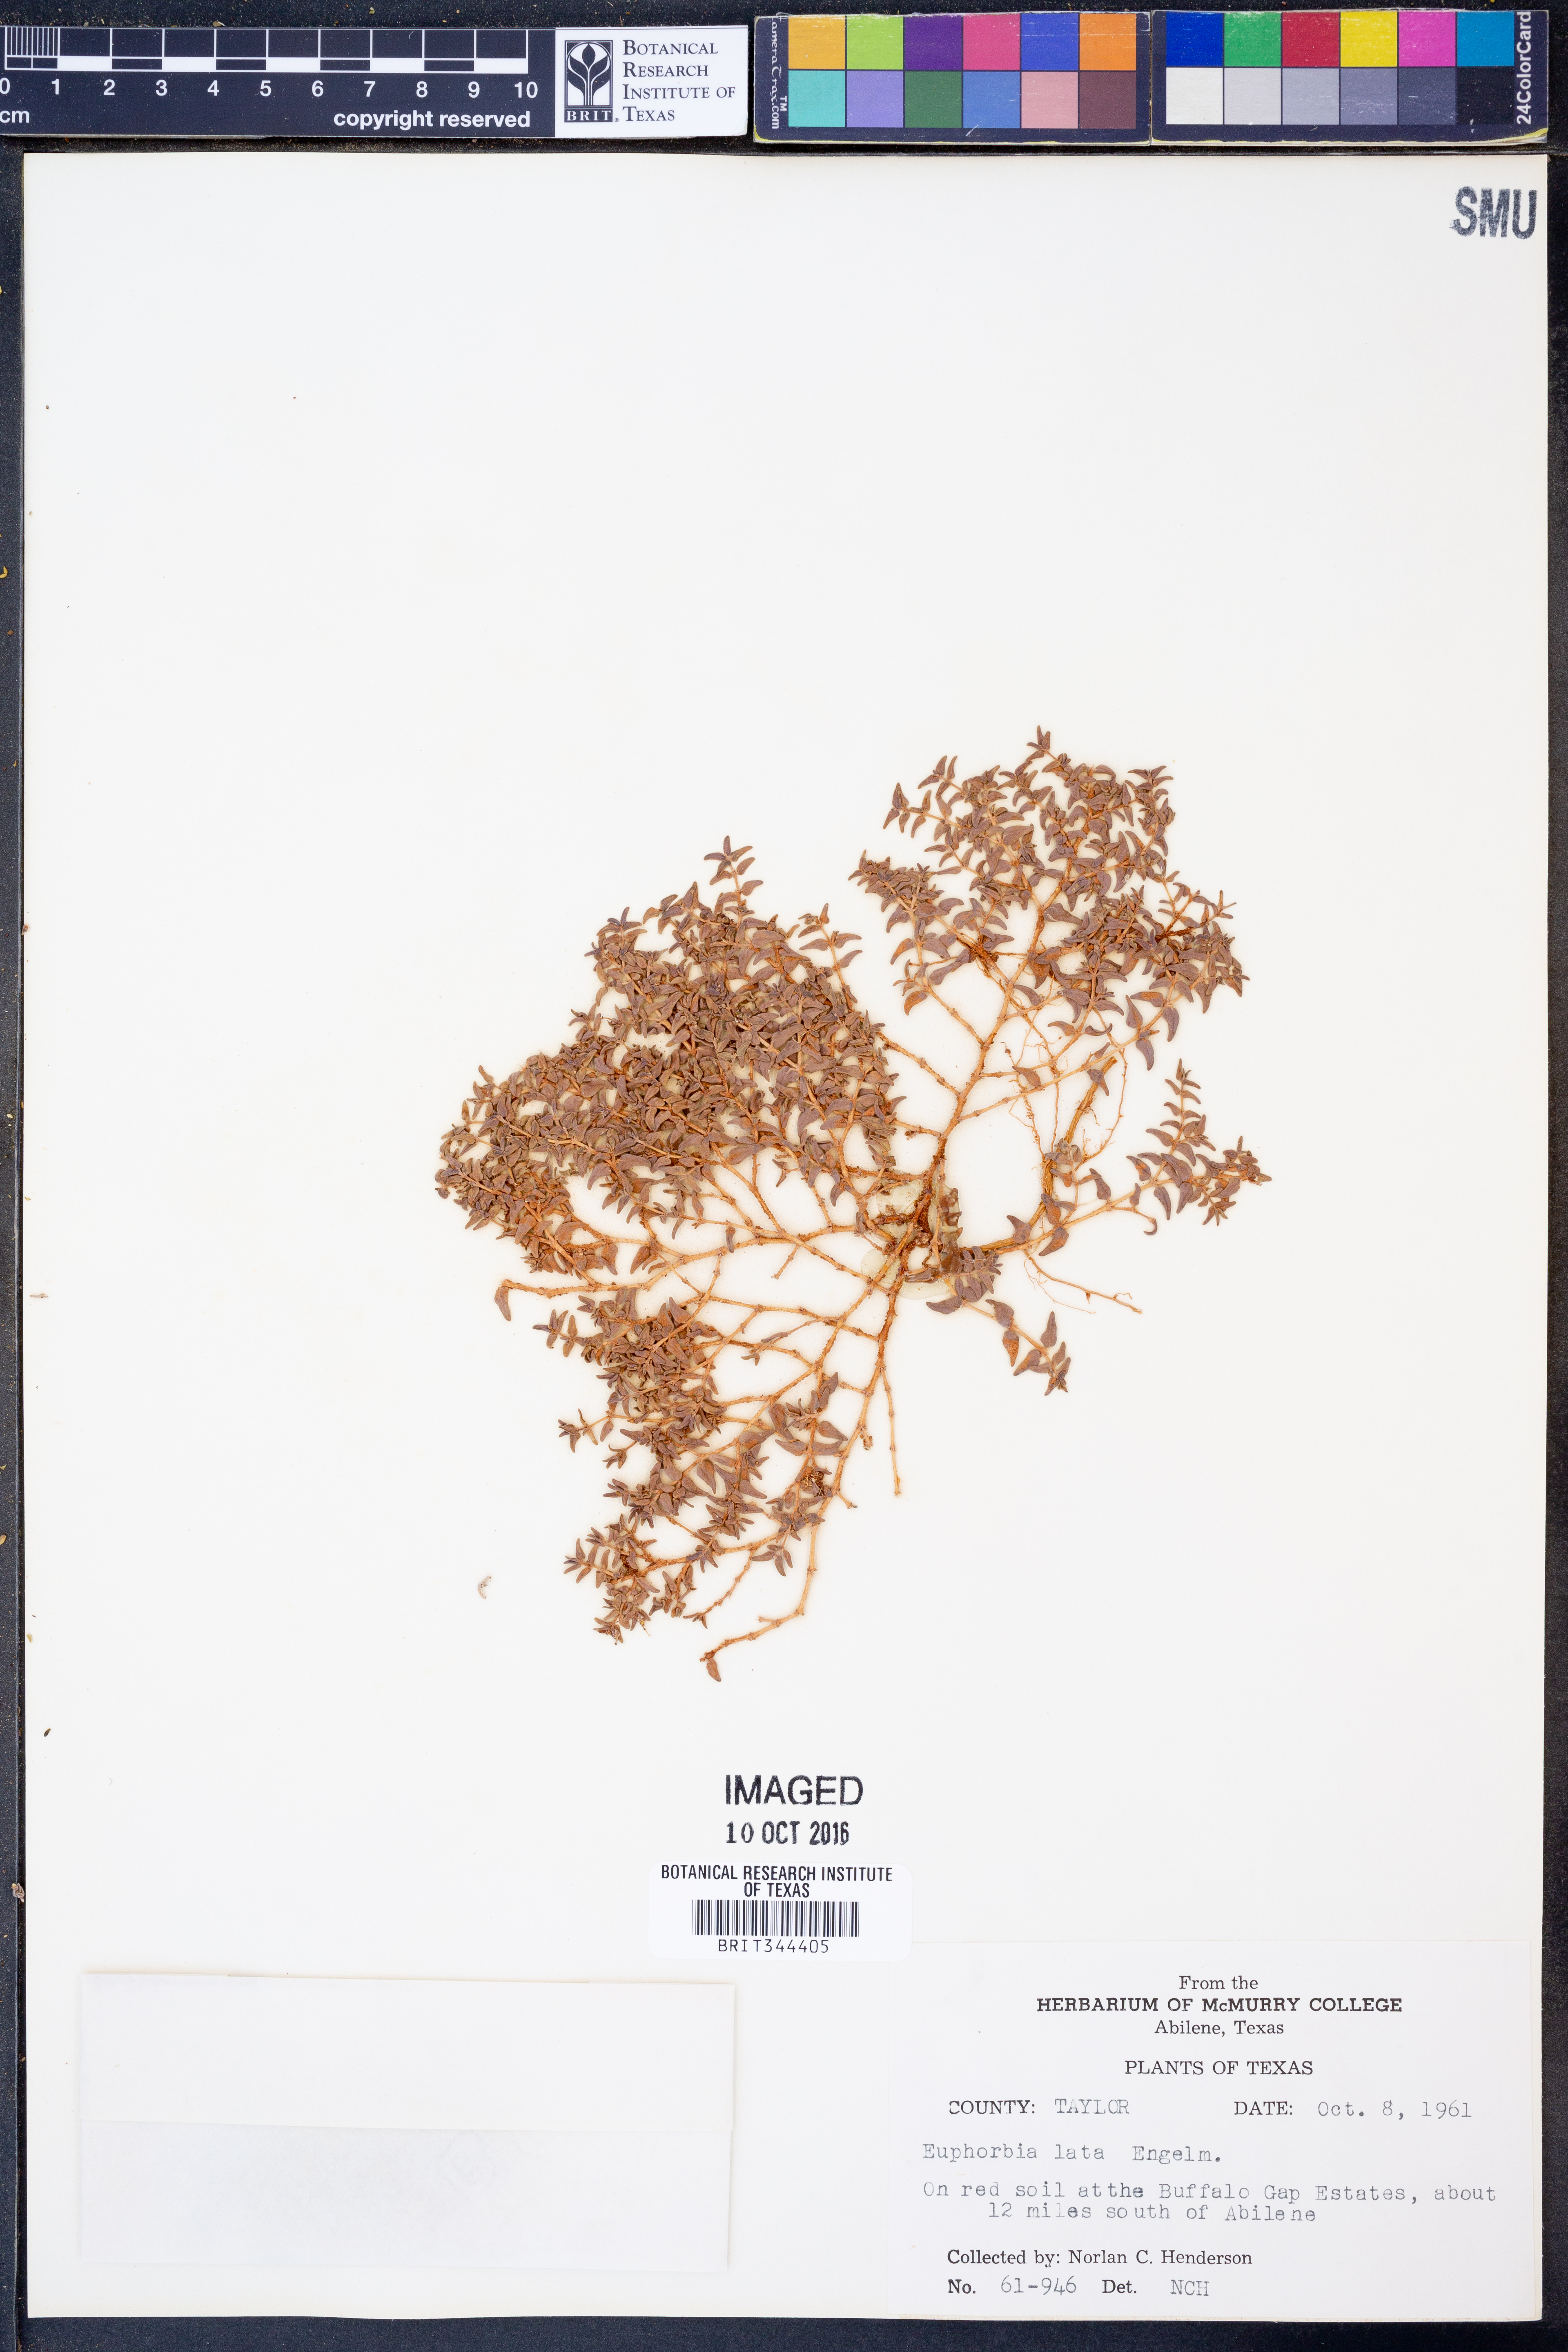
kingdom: Plantae
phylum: Tracheophyta
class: Magnoliopsida
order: Malpighiales
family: Euphorbiaceae
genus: Euphorbia
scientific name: Euphorbia lata
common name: Hoary euphorbia
